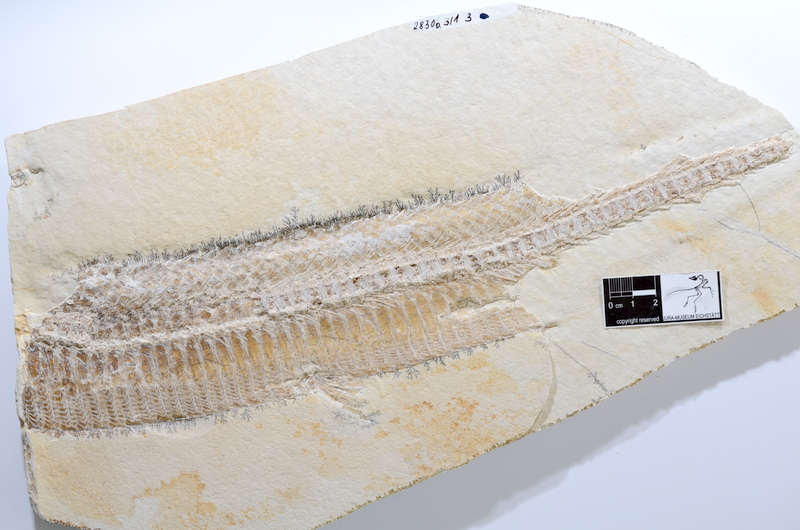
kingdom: Animalia
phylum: Chordata
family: Aspidorhynchidae
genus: Aspidorhynchus
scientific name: Aspidorhynchus acutirostris
